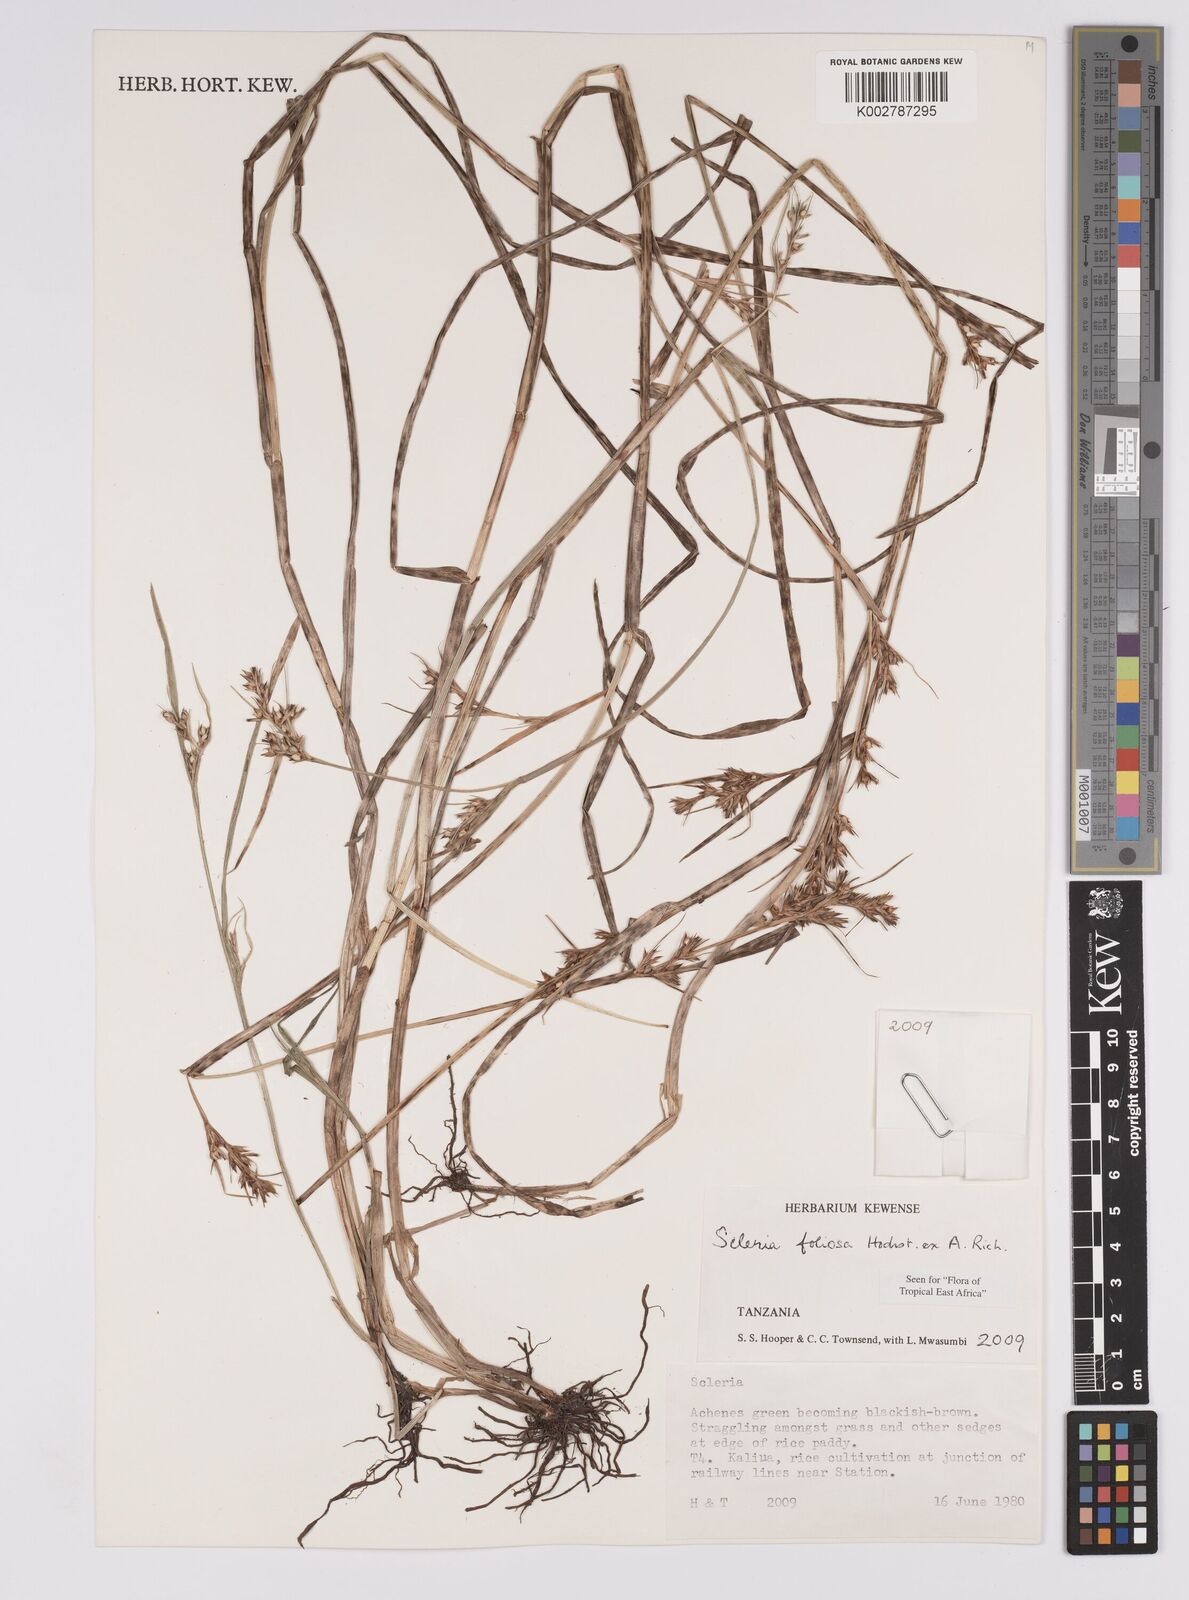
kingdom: Plantae
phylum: Tracheophyta
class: Liliopsida
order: Poales
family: Cyperaceae
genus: Scleria
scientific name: Scleria foliosa
